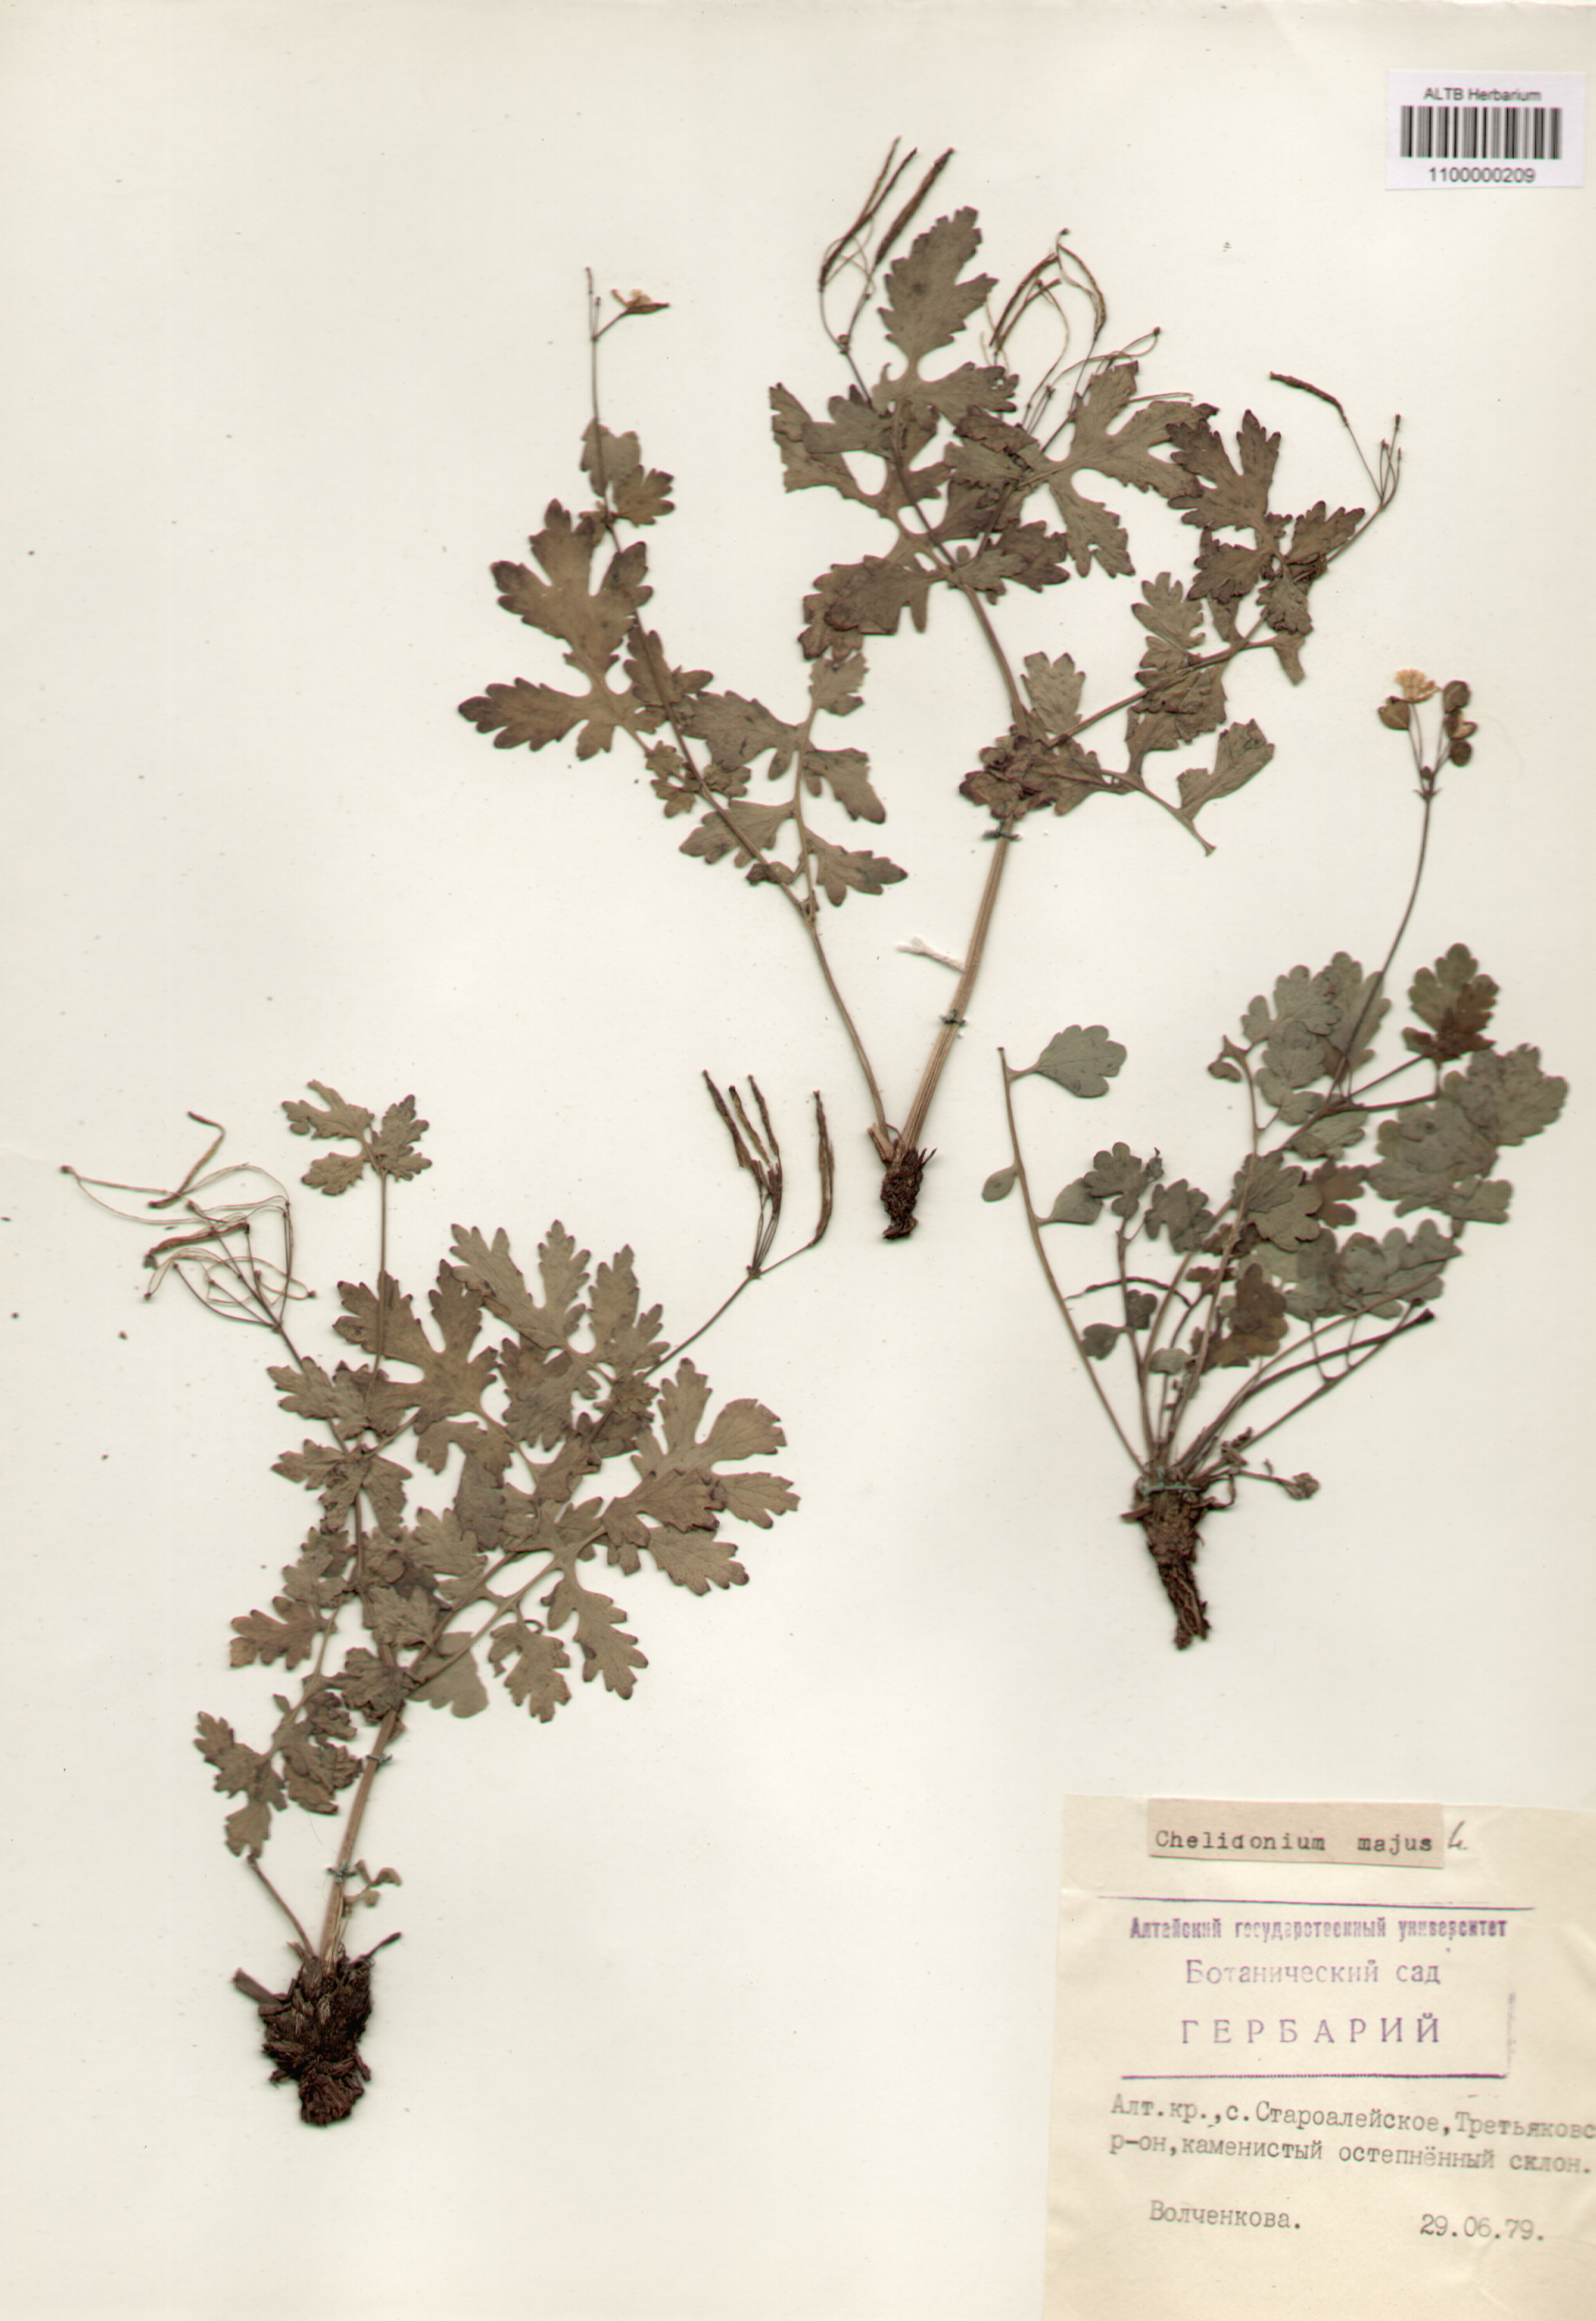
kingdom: Plantae
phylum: Tracheophyta
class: Magnoliopsida
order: Ranunculales
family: Papaveraceae
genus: Chelidonium
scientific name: Chelidonium majus
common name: Greater celandine
